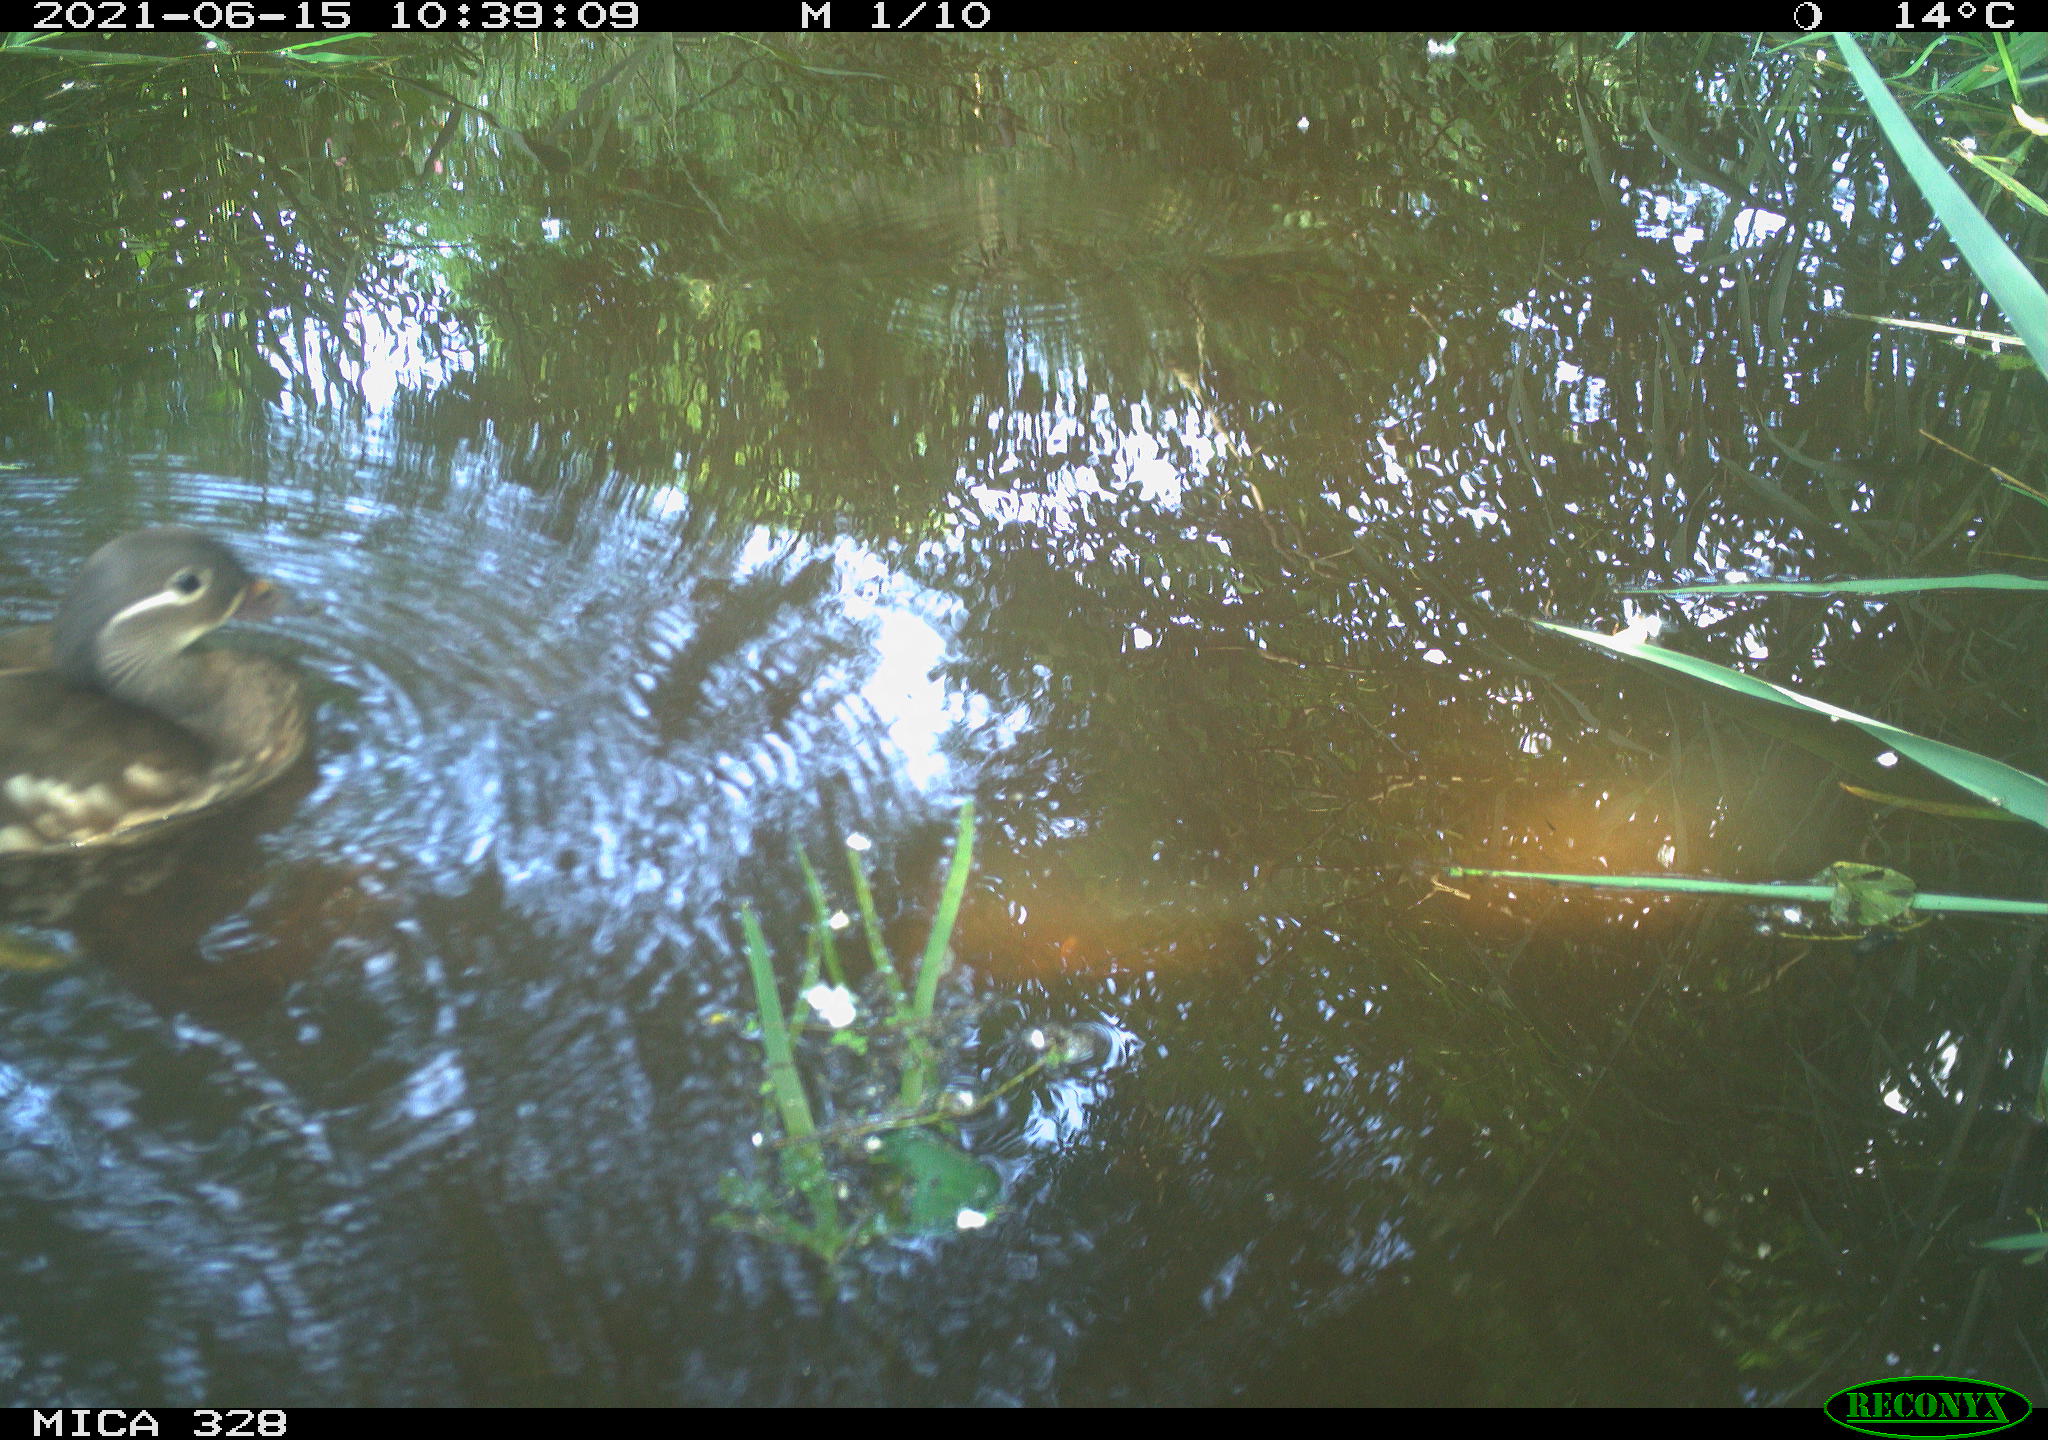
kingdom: Animalia
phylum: Chordata
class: Aves
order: Anseriformes
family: Anatidae
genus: Aix
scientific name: Aix galericulata
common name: Mandarin duck
